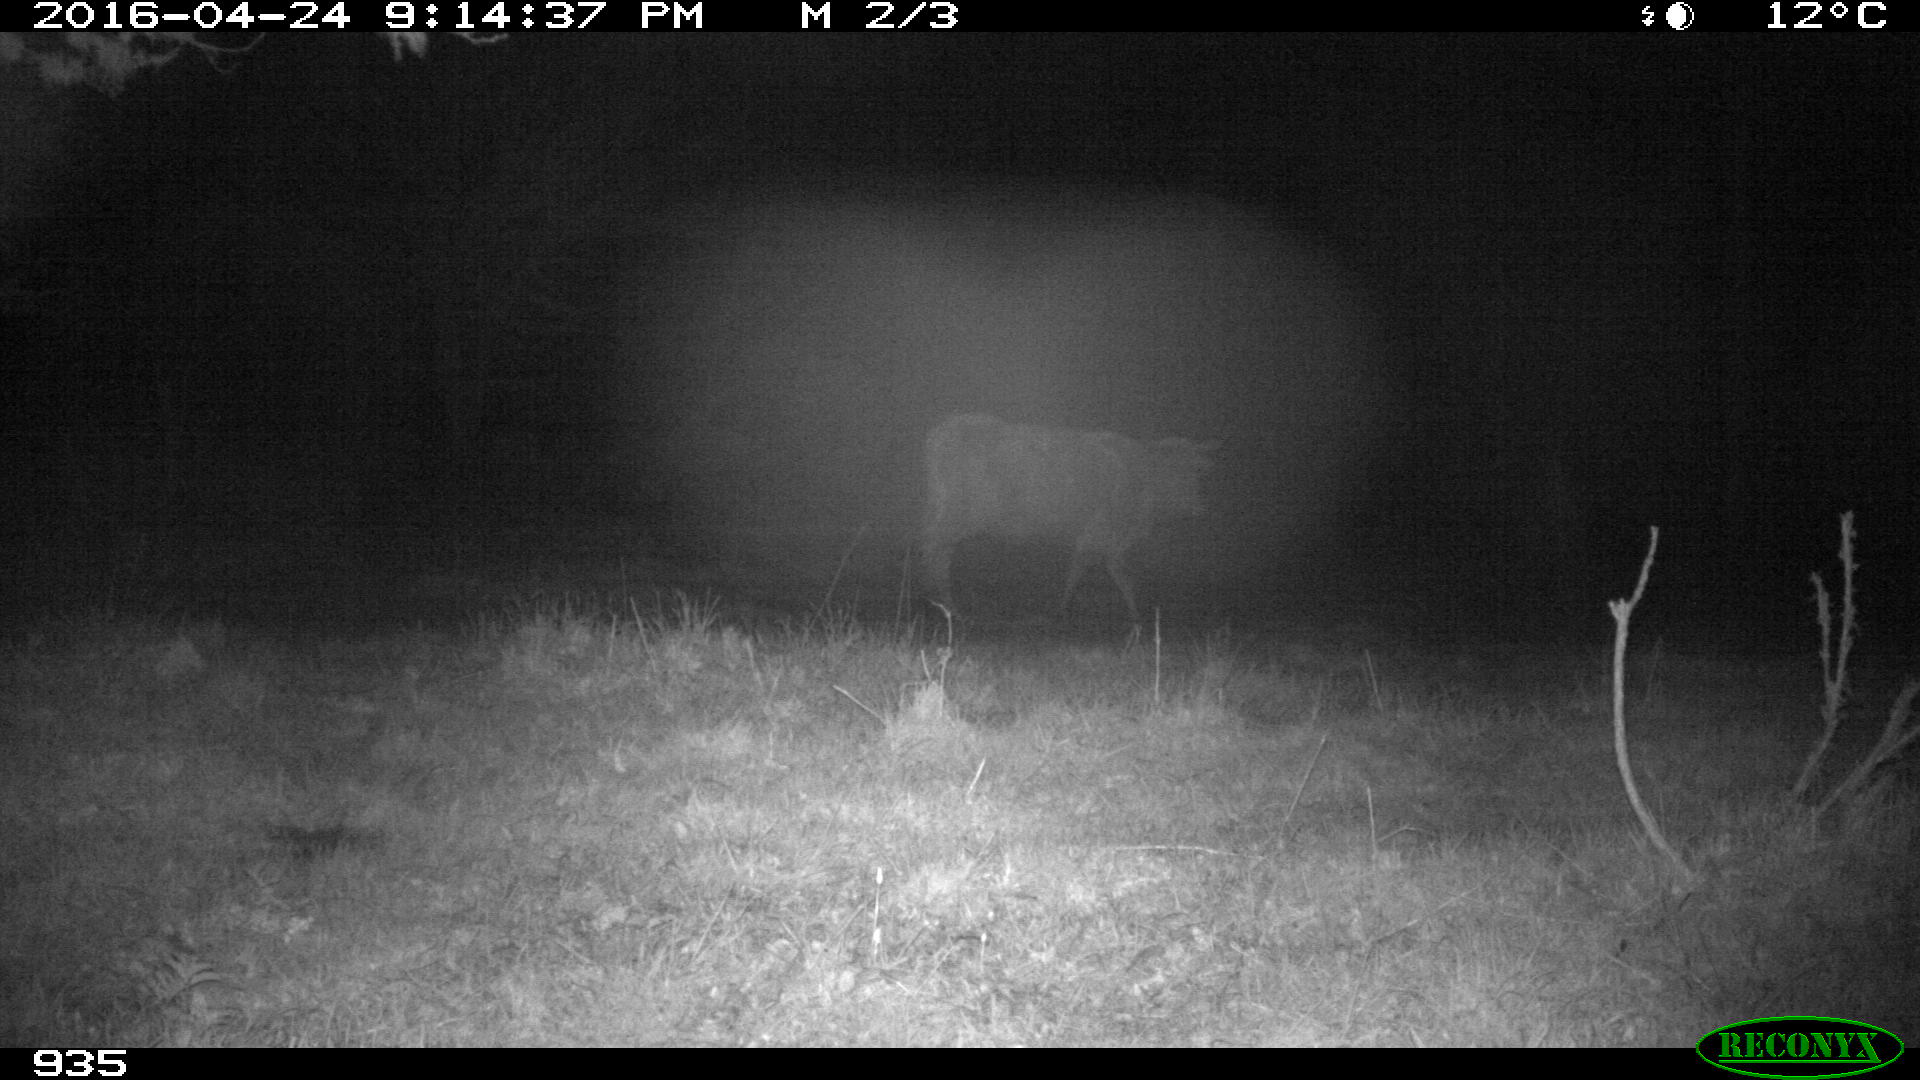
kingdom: Animalia
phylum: Chordata
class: Mammalia
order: Artiodactyla
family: Bovidae
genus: Bos
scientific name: Bos taurus
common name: Domesticated cattle
